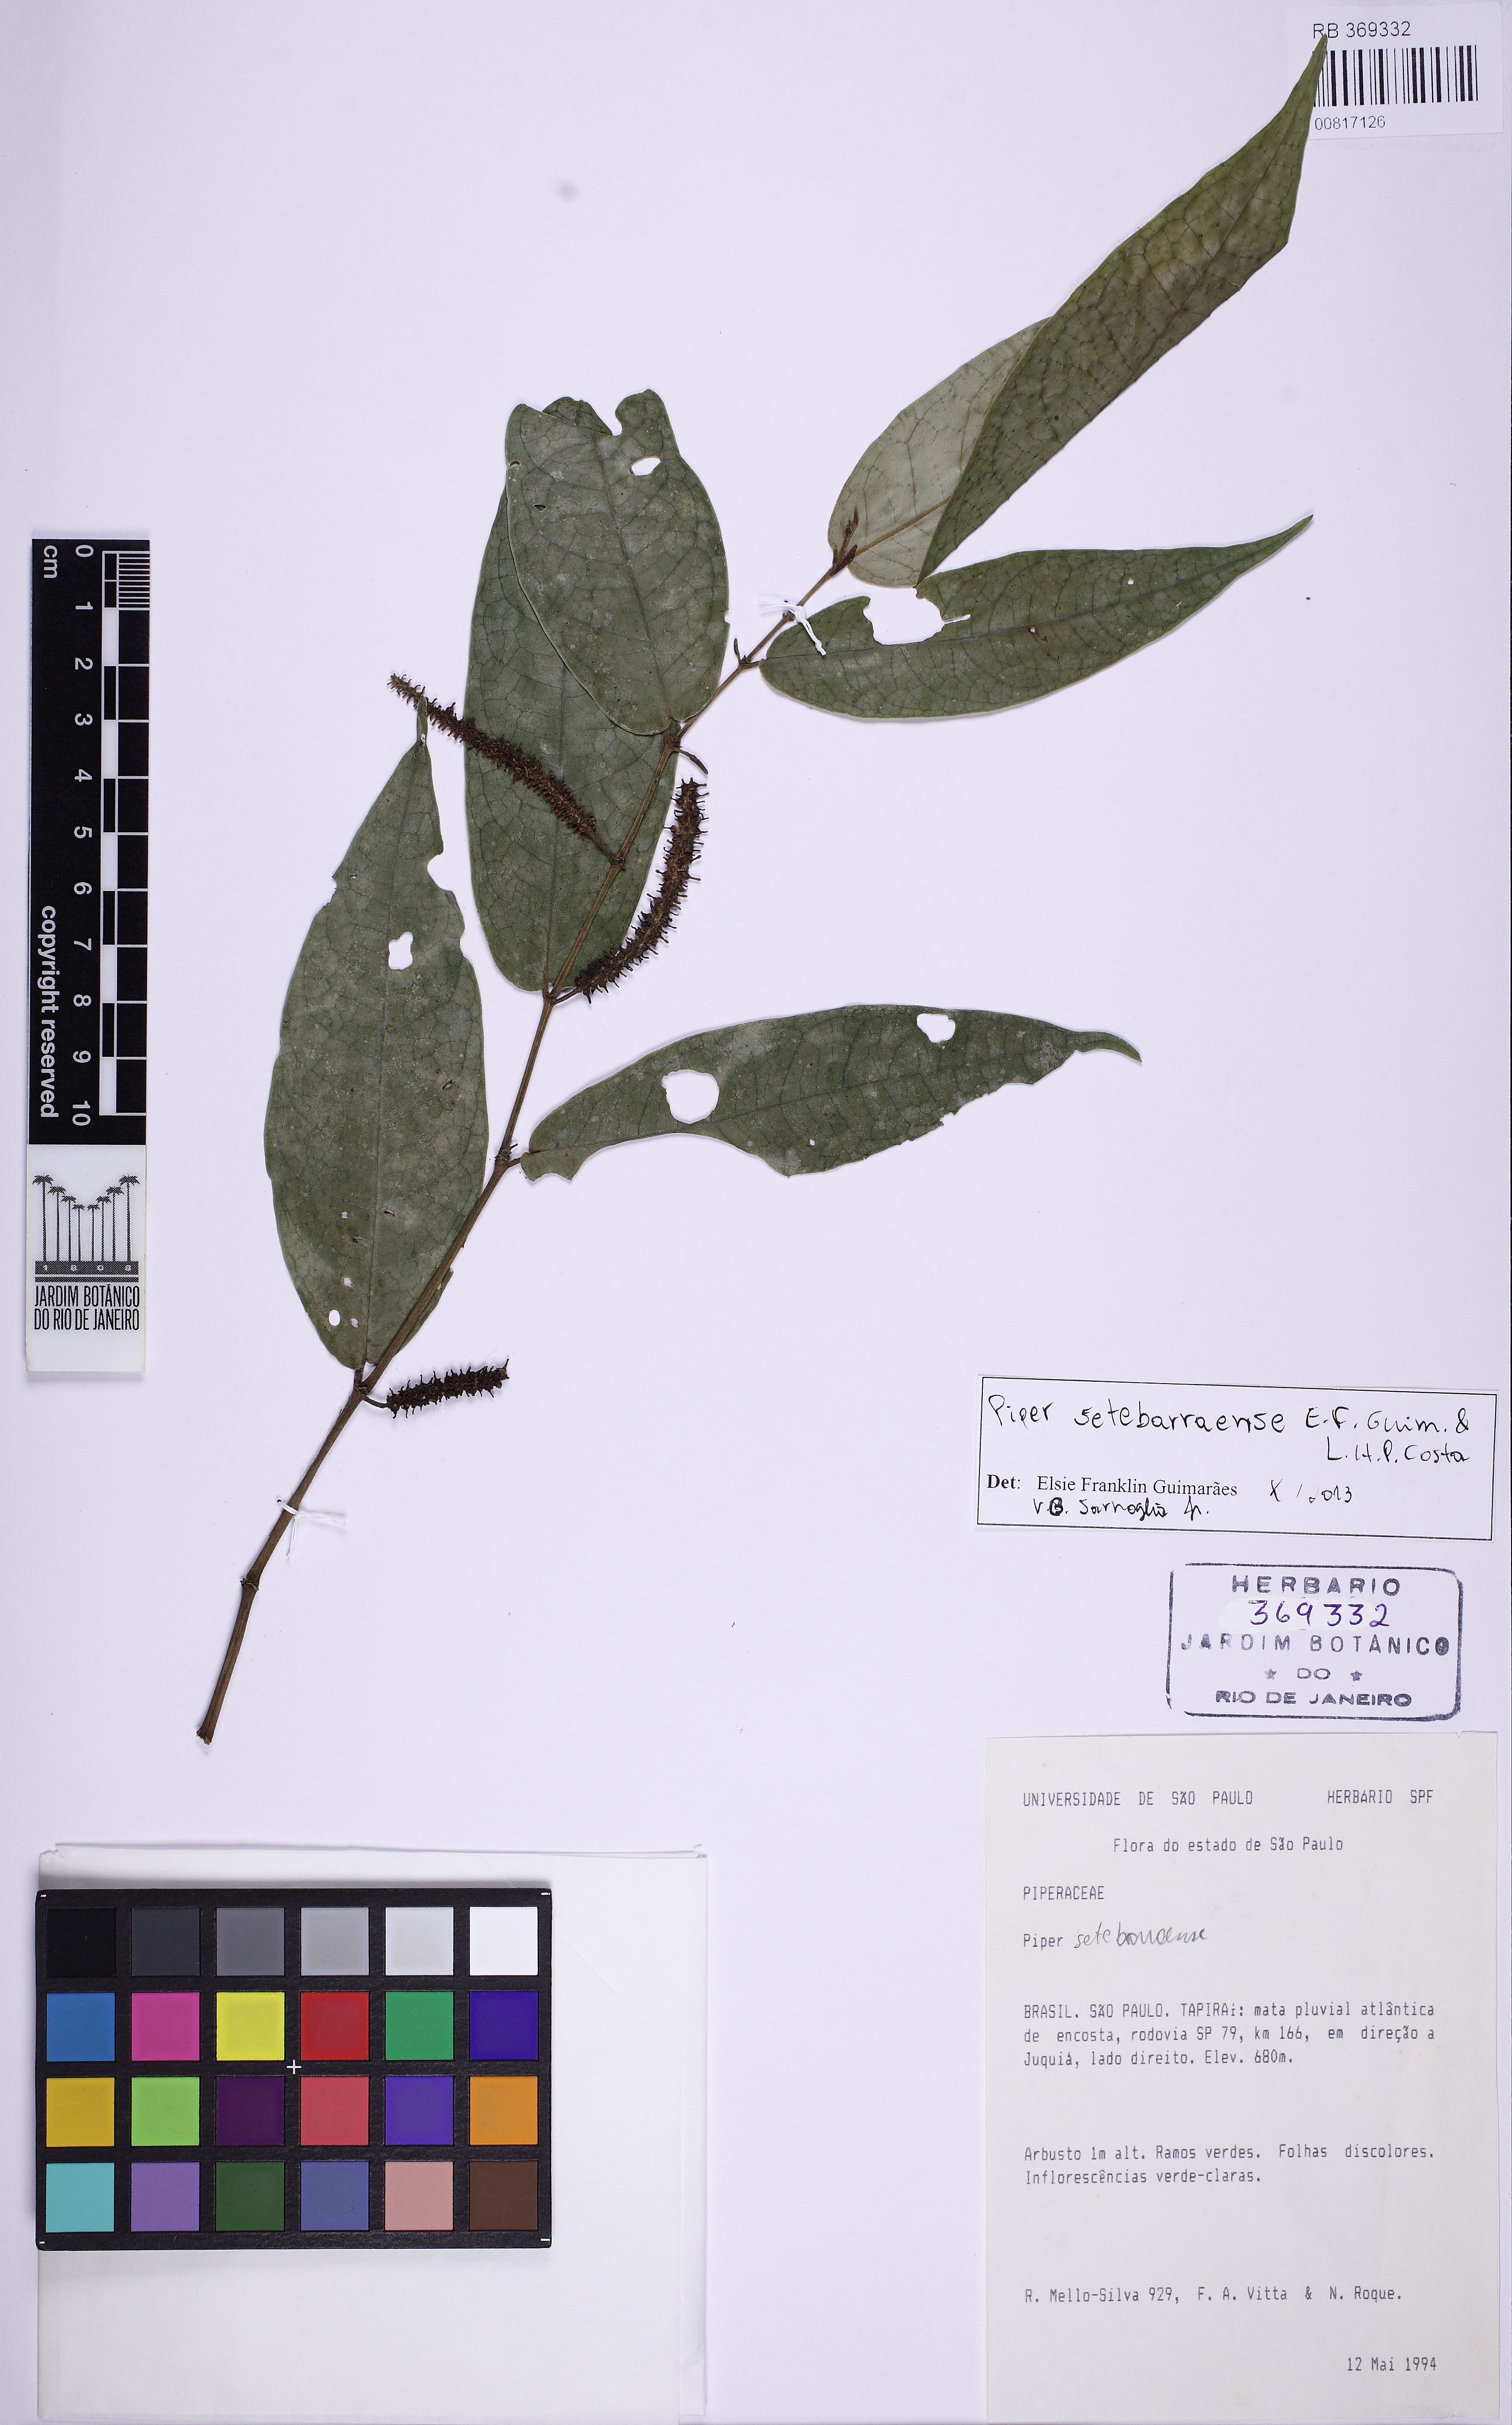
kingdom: Plantae
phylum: Tracheophyta
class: Magnoliopsida
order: Piperales
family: Piperaceae
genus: Piper
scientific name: Piper setebarraense
